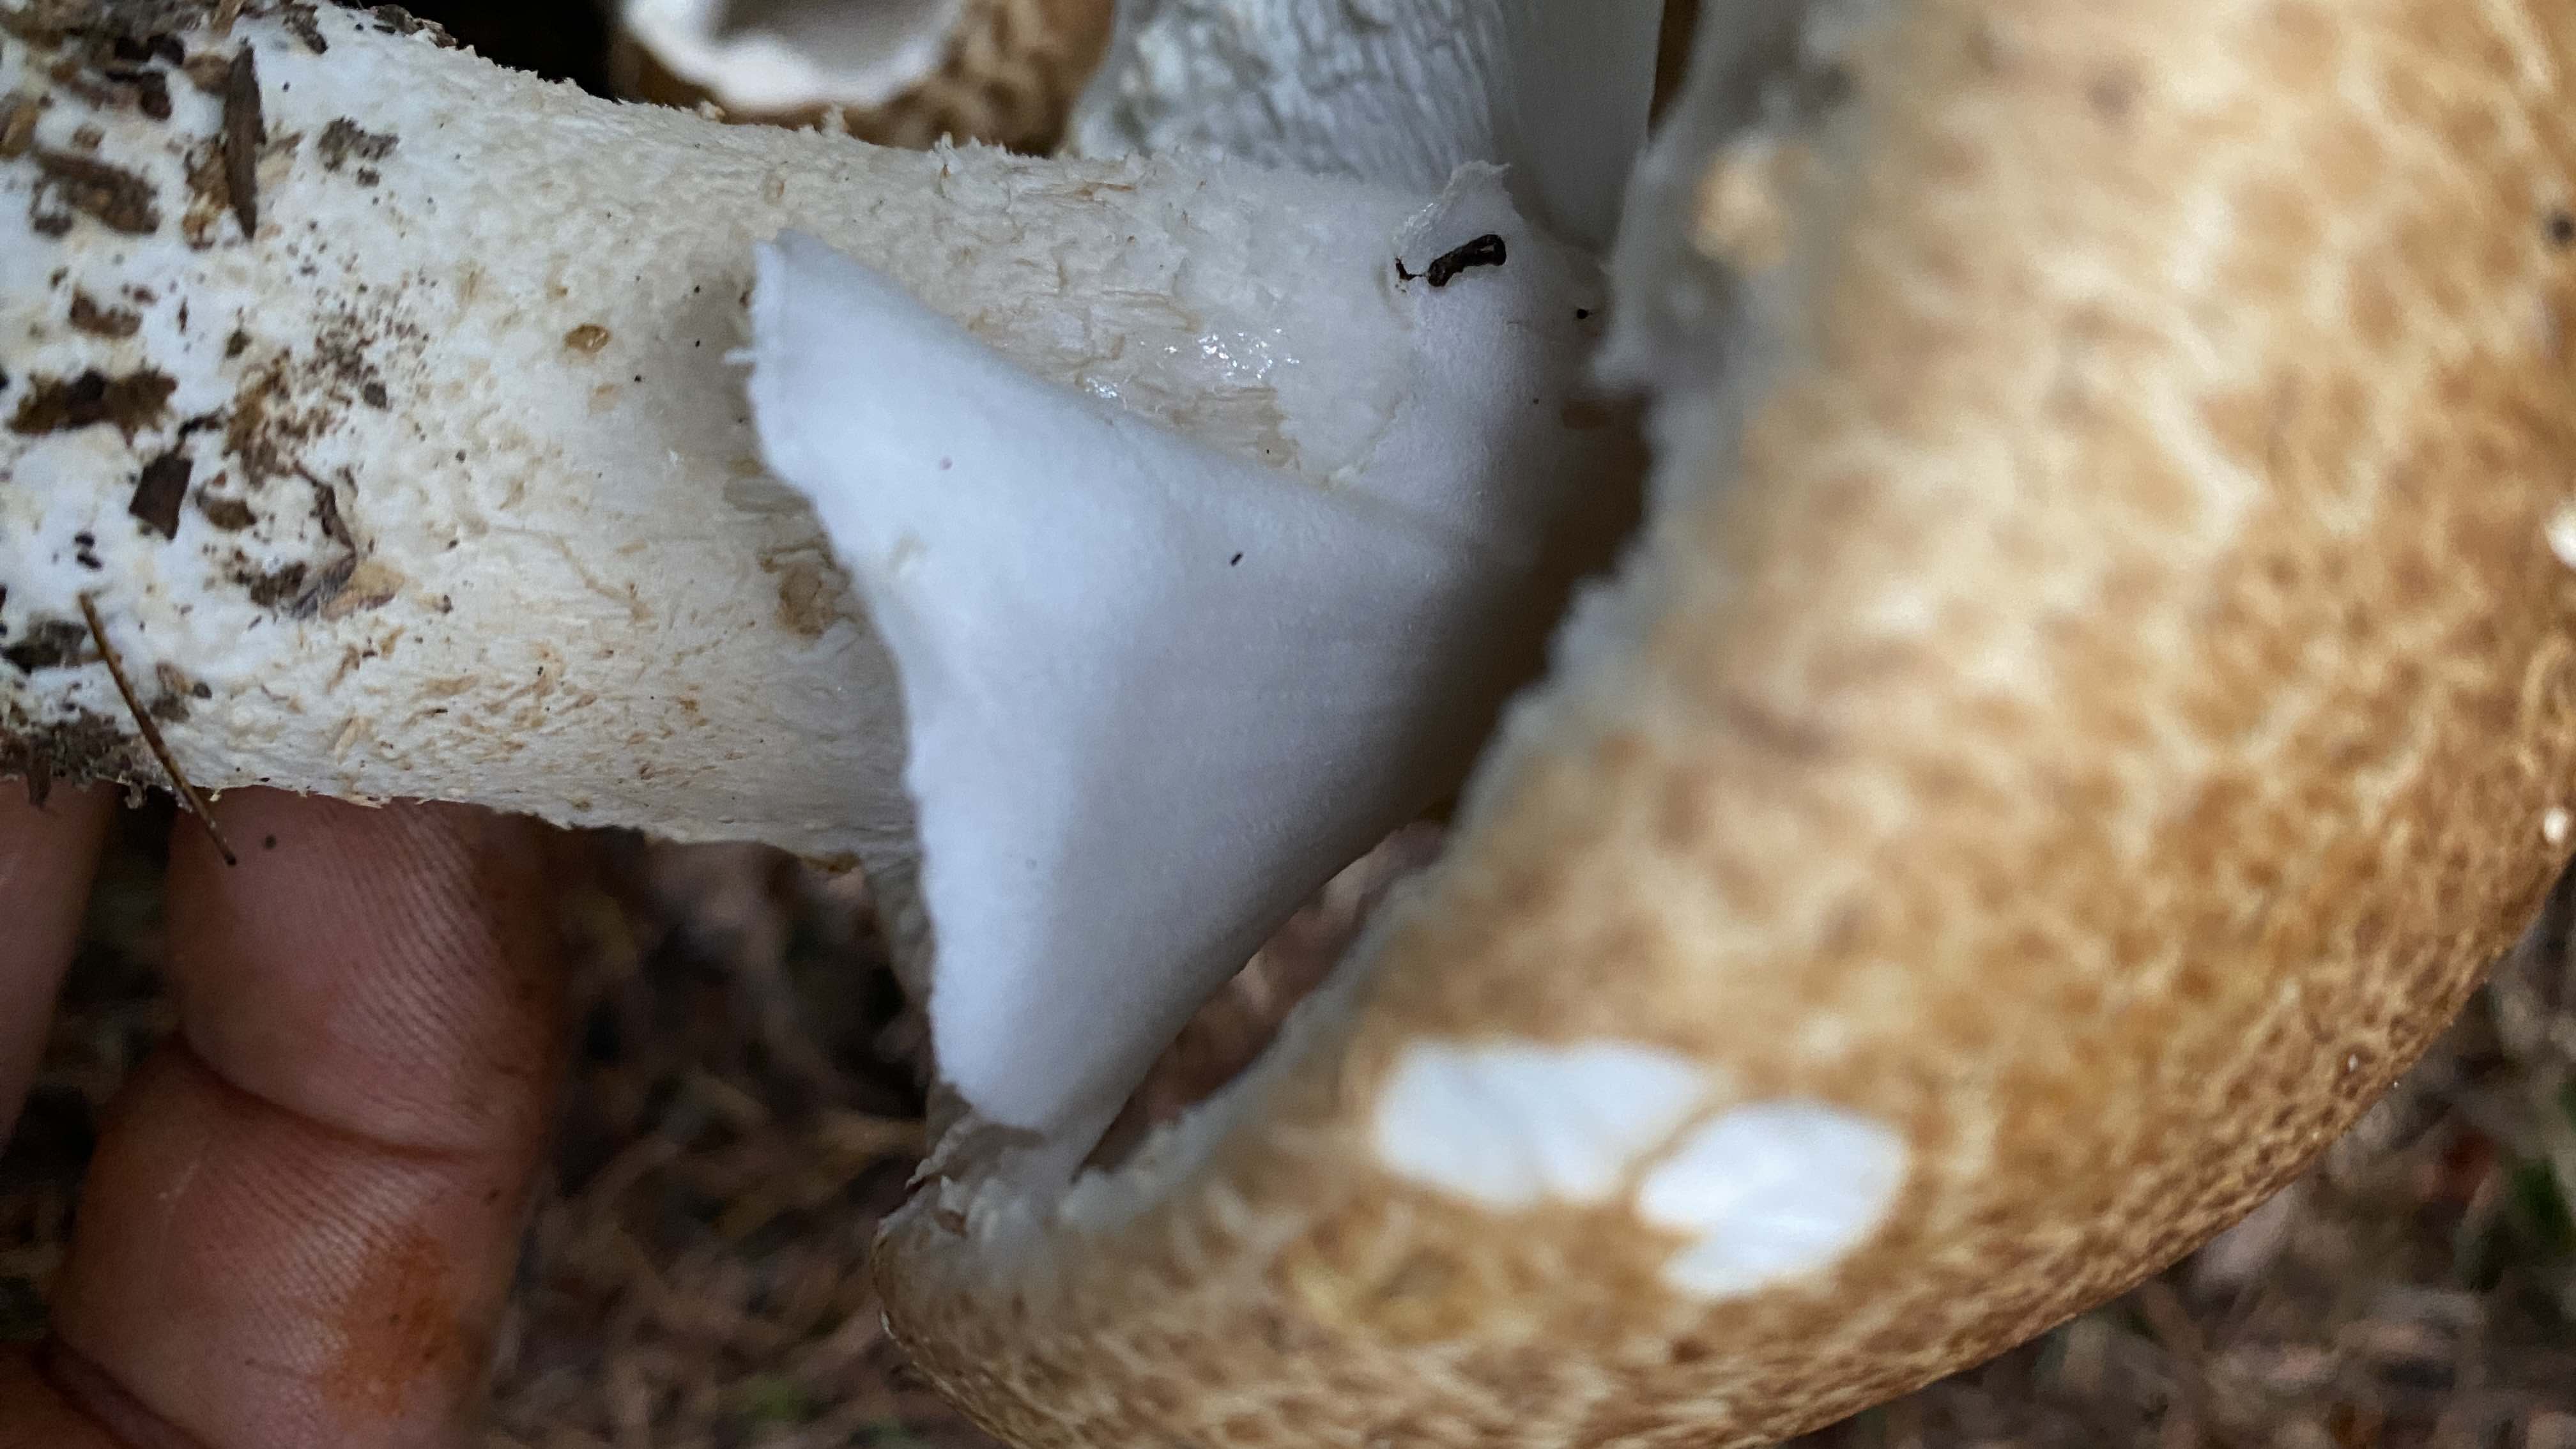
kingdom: Fungi
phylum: Basidiomycota
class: Agaricomycetes
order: Agaricales
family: Agaricaceae
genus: Agaricus
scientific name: Agaricus augustus
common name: prægtig champignon
